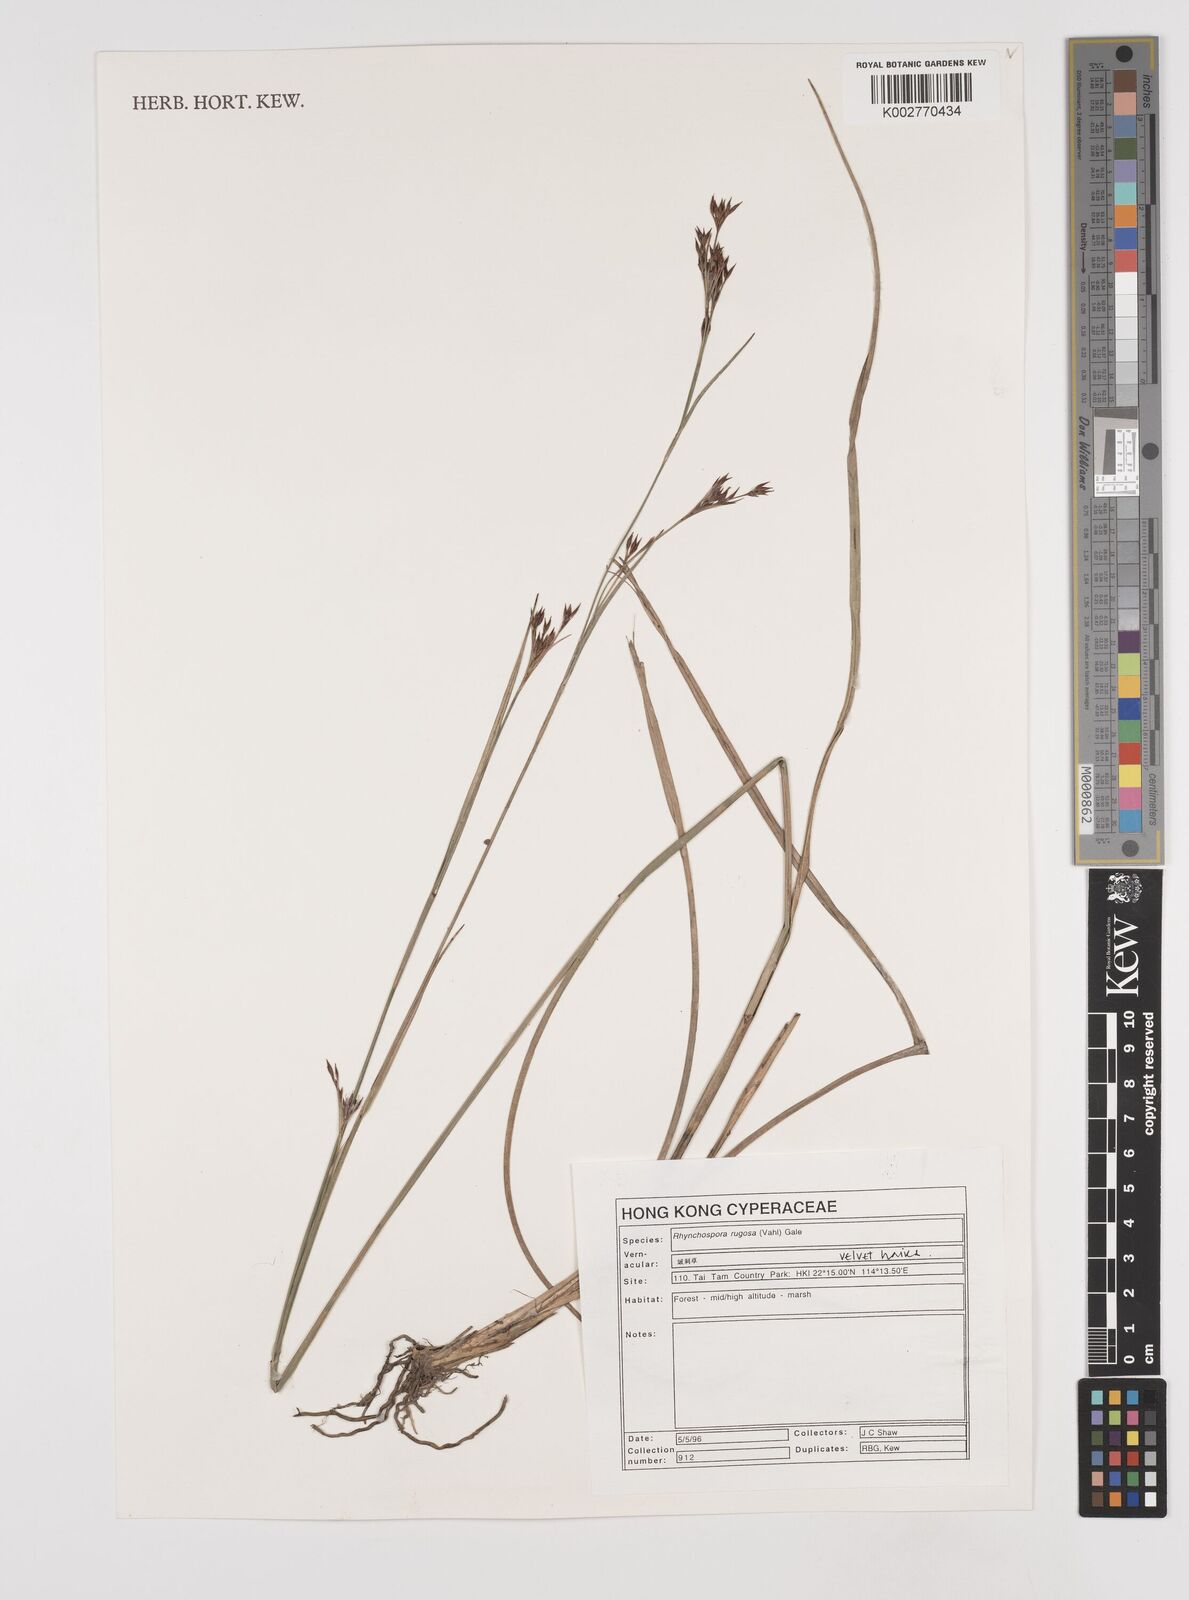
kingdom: Plantae
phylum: Tracheophyta
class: Liliopsida
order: Poales
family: Cyperaceae
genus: Rhynchospora
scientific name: Rhynchospora rugosa
